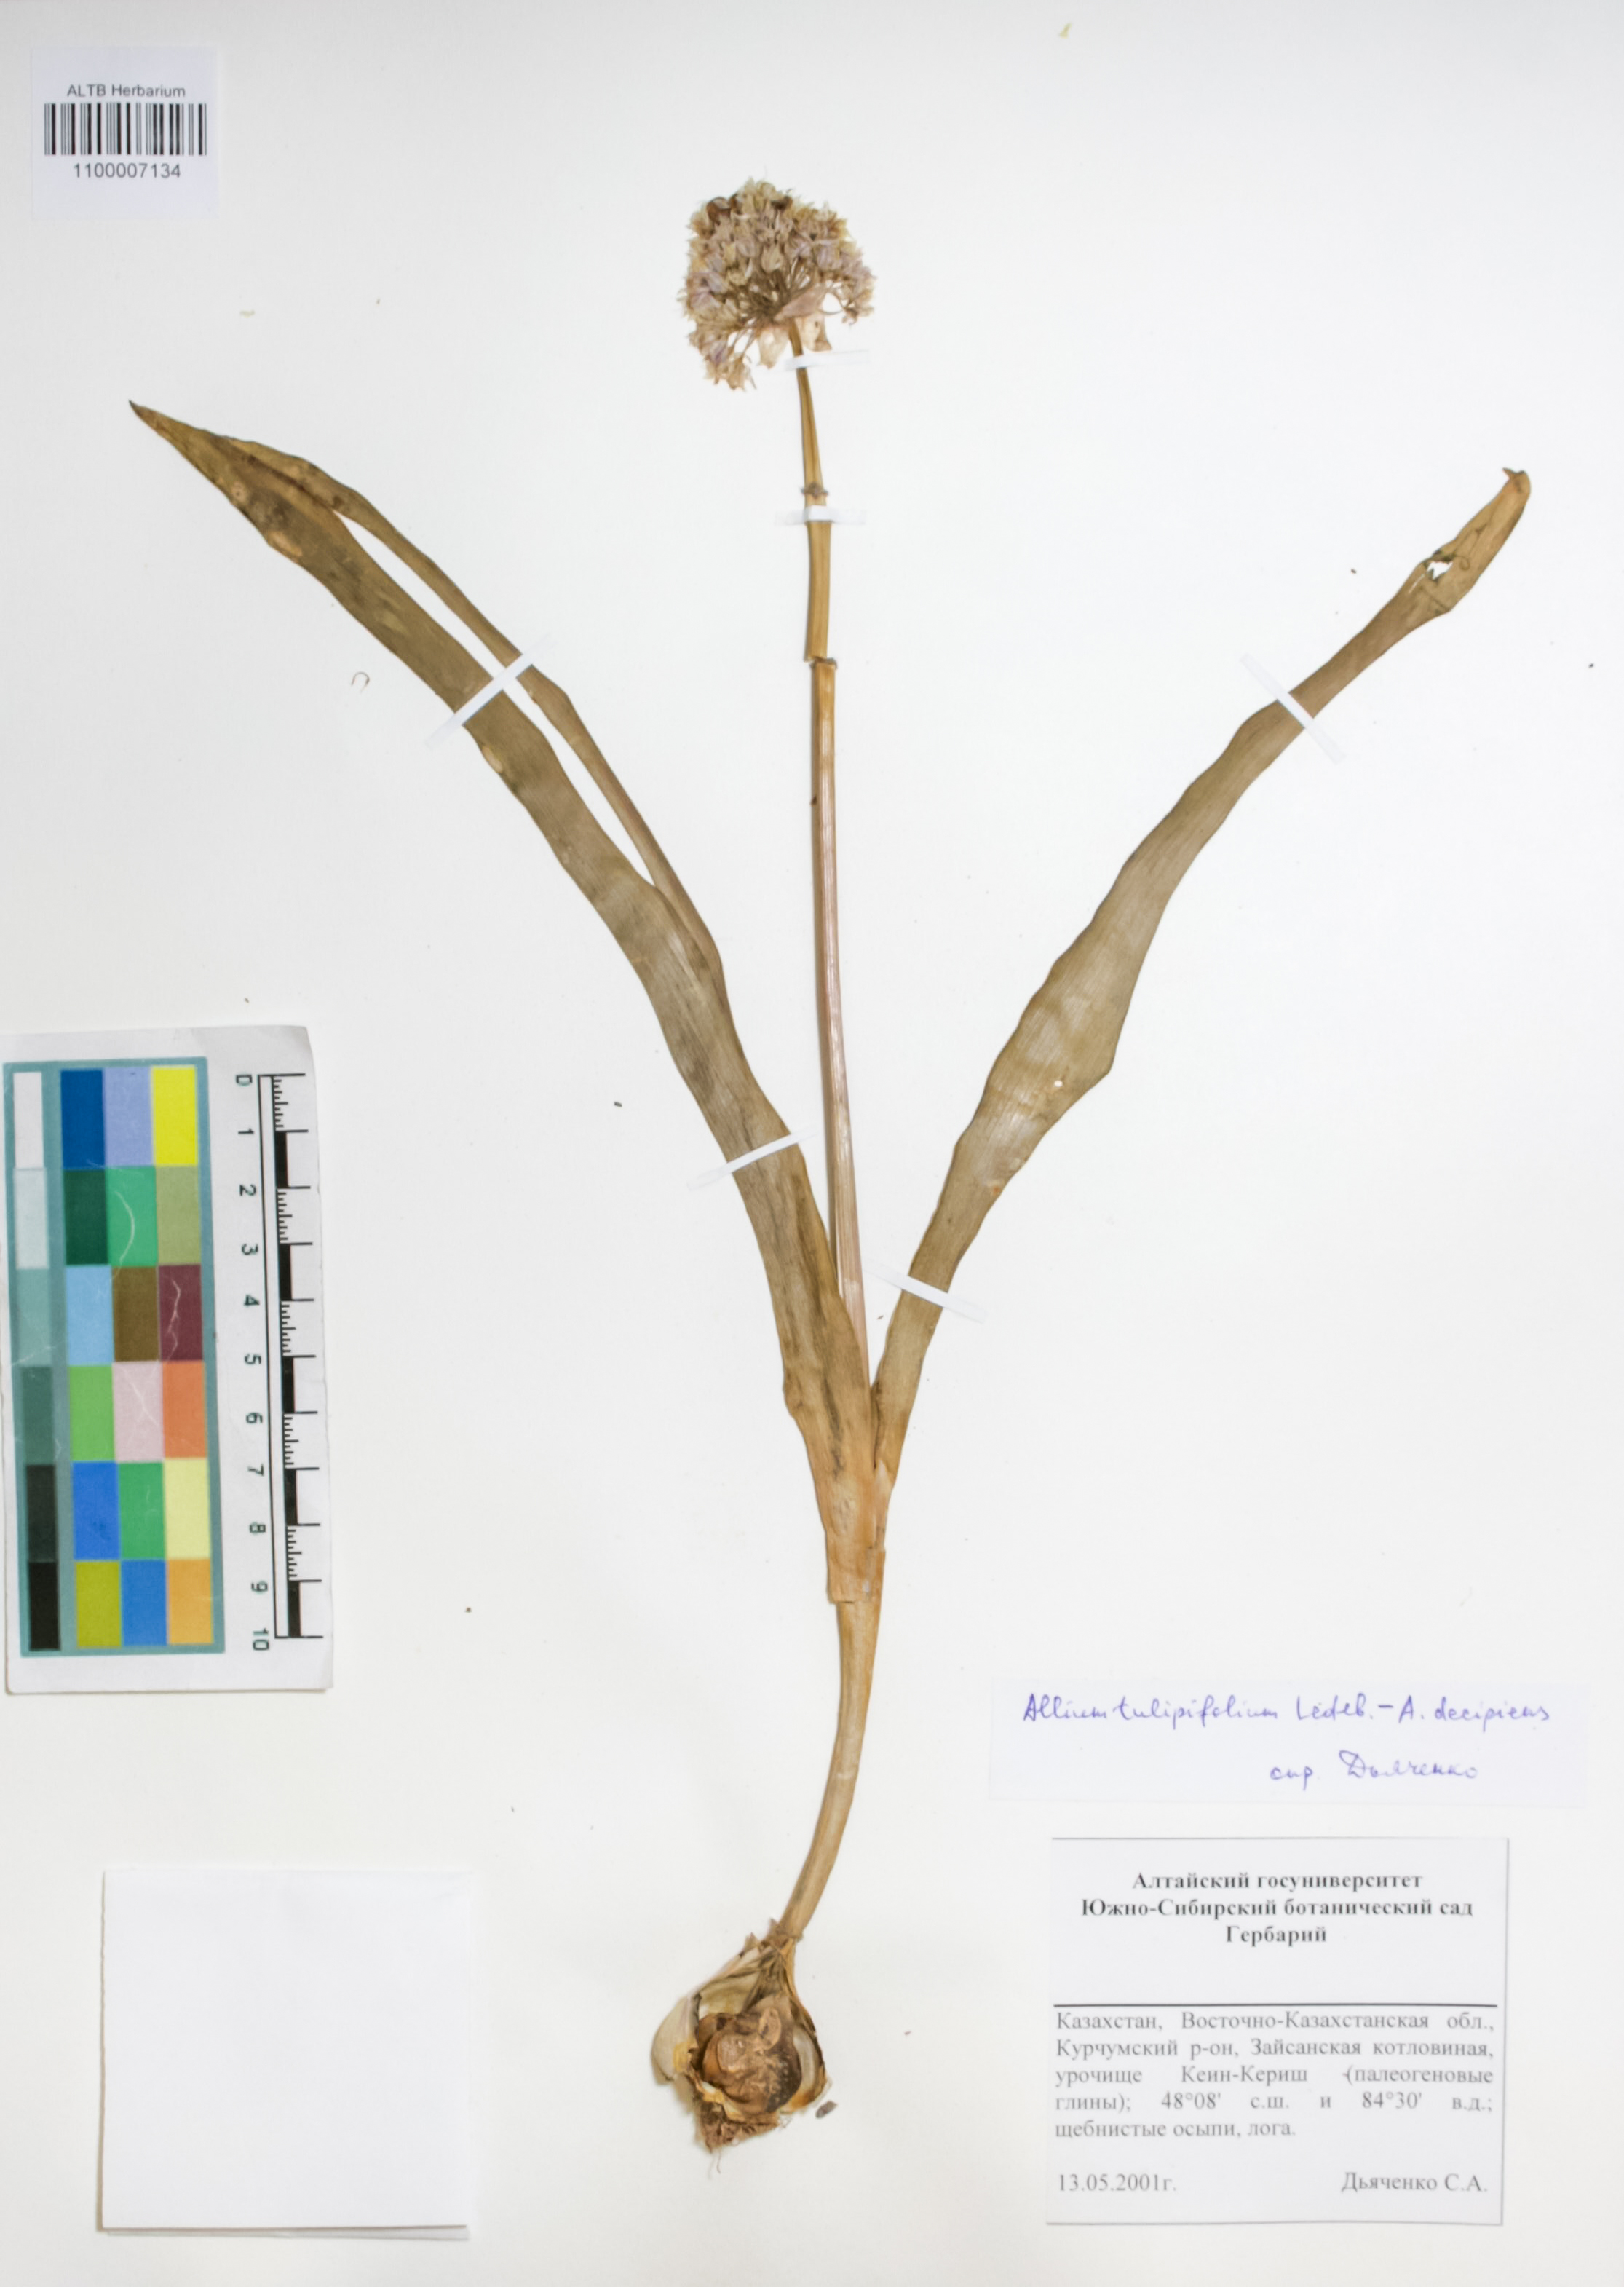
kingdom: Plantae
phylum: Tracheophyta
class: Liliopsida
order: Asparagales
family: Amaryllidaceae
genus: Allium
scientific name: Allium tulipifolium
